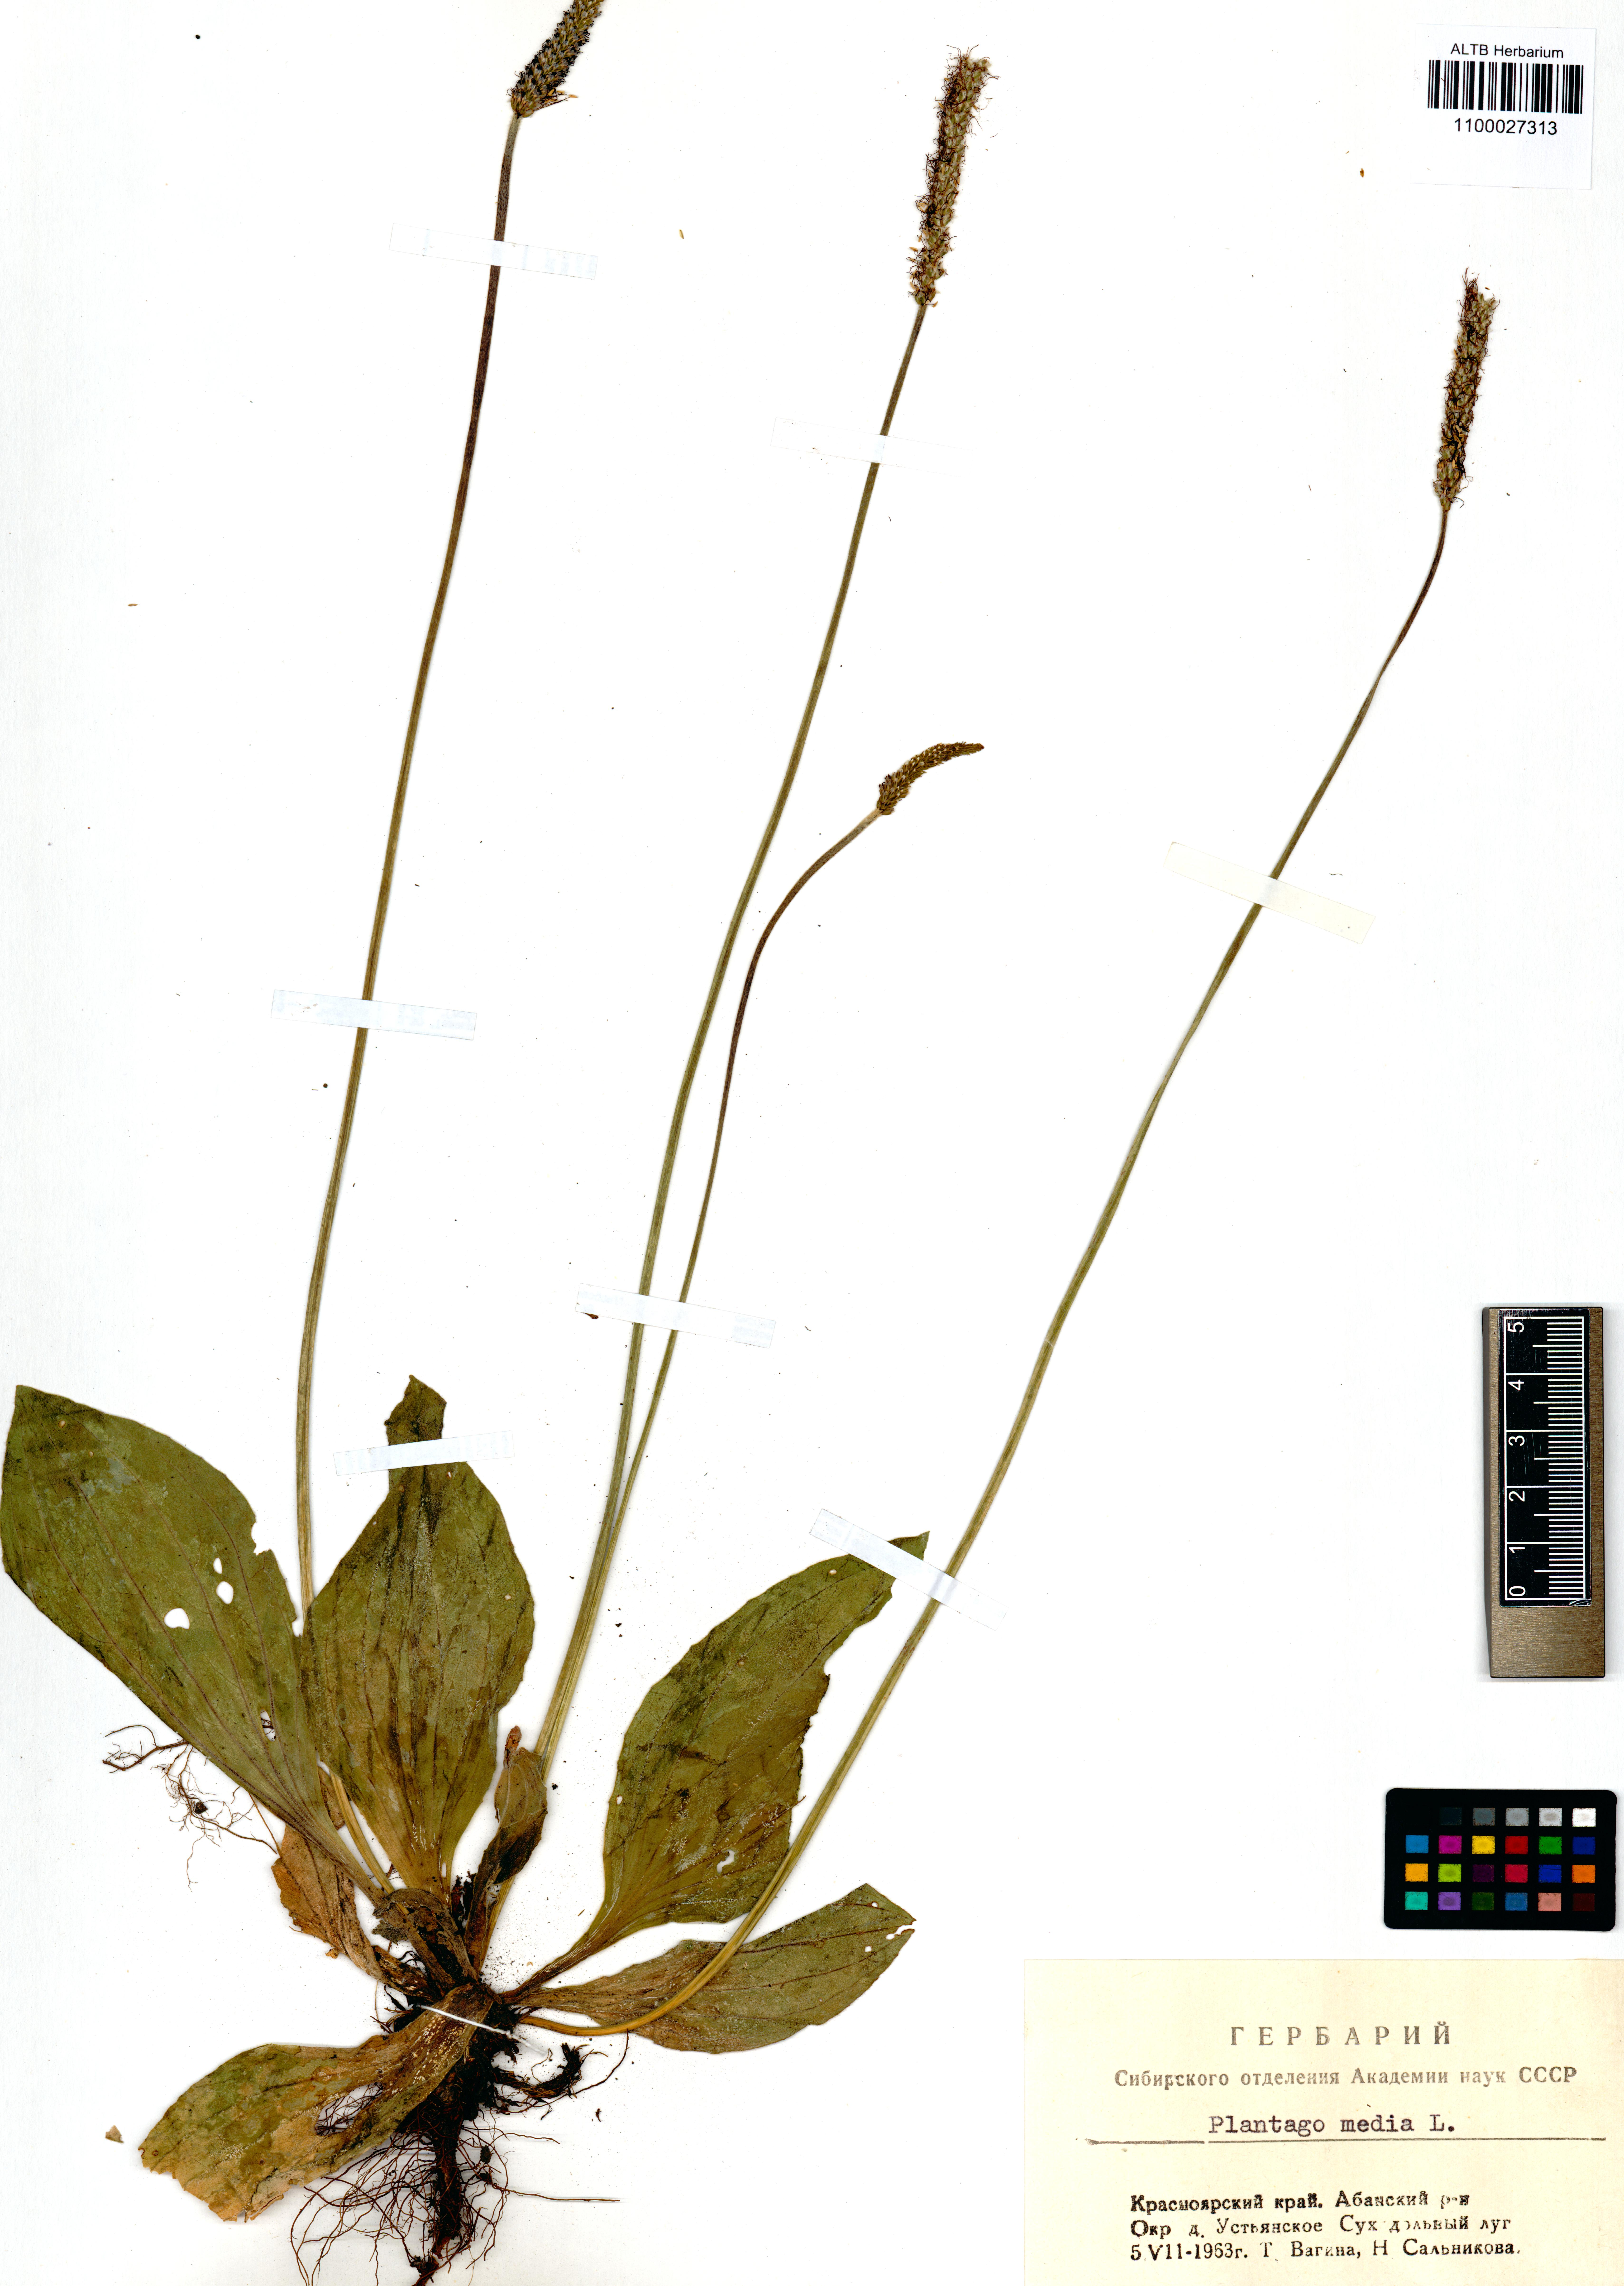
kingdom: Plantae
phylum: Tracheophyta
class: Magnoliopsida
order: Lamiales
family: Plantaginaceae
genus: Plantago
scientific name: Plantago media
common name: Hoary plantain
